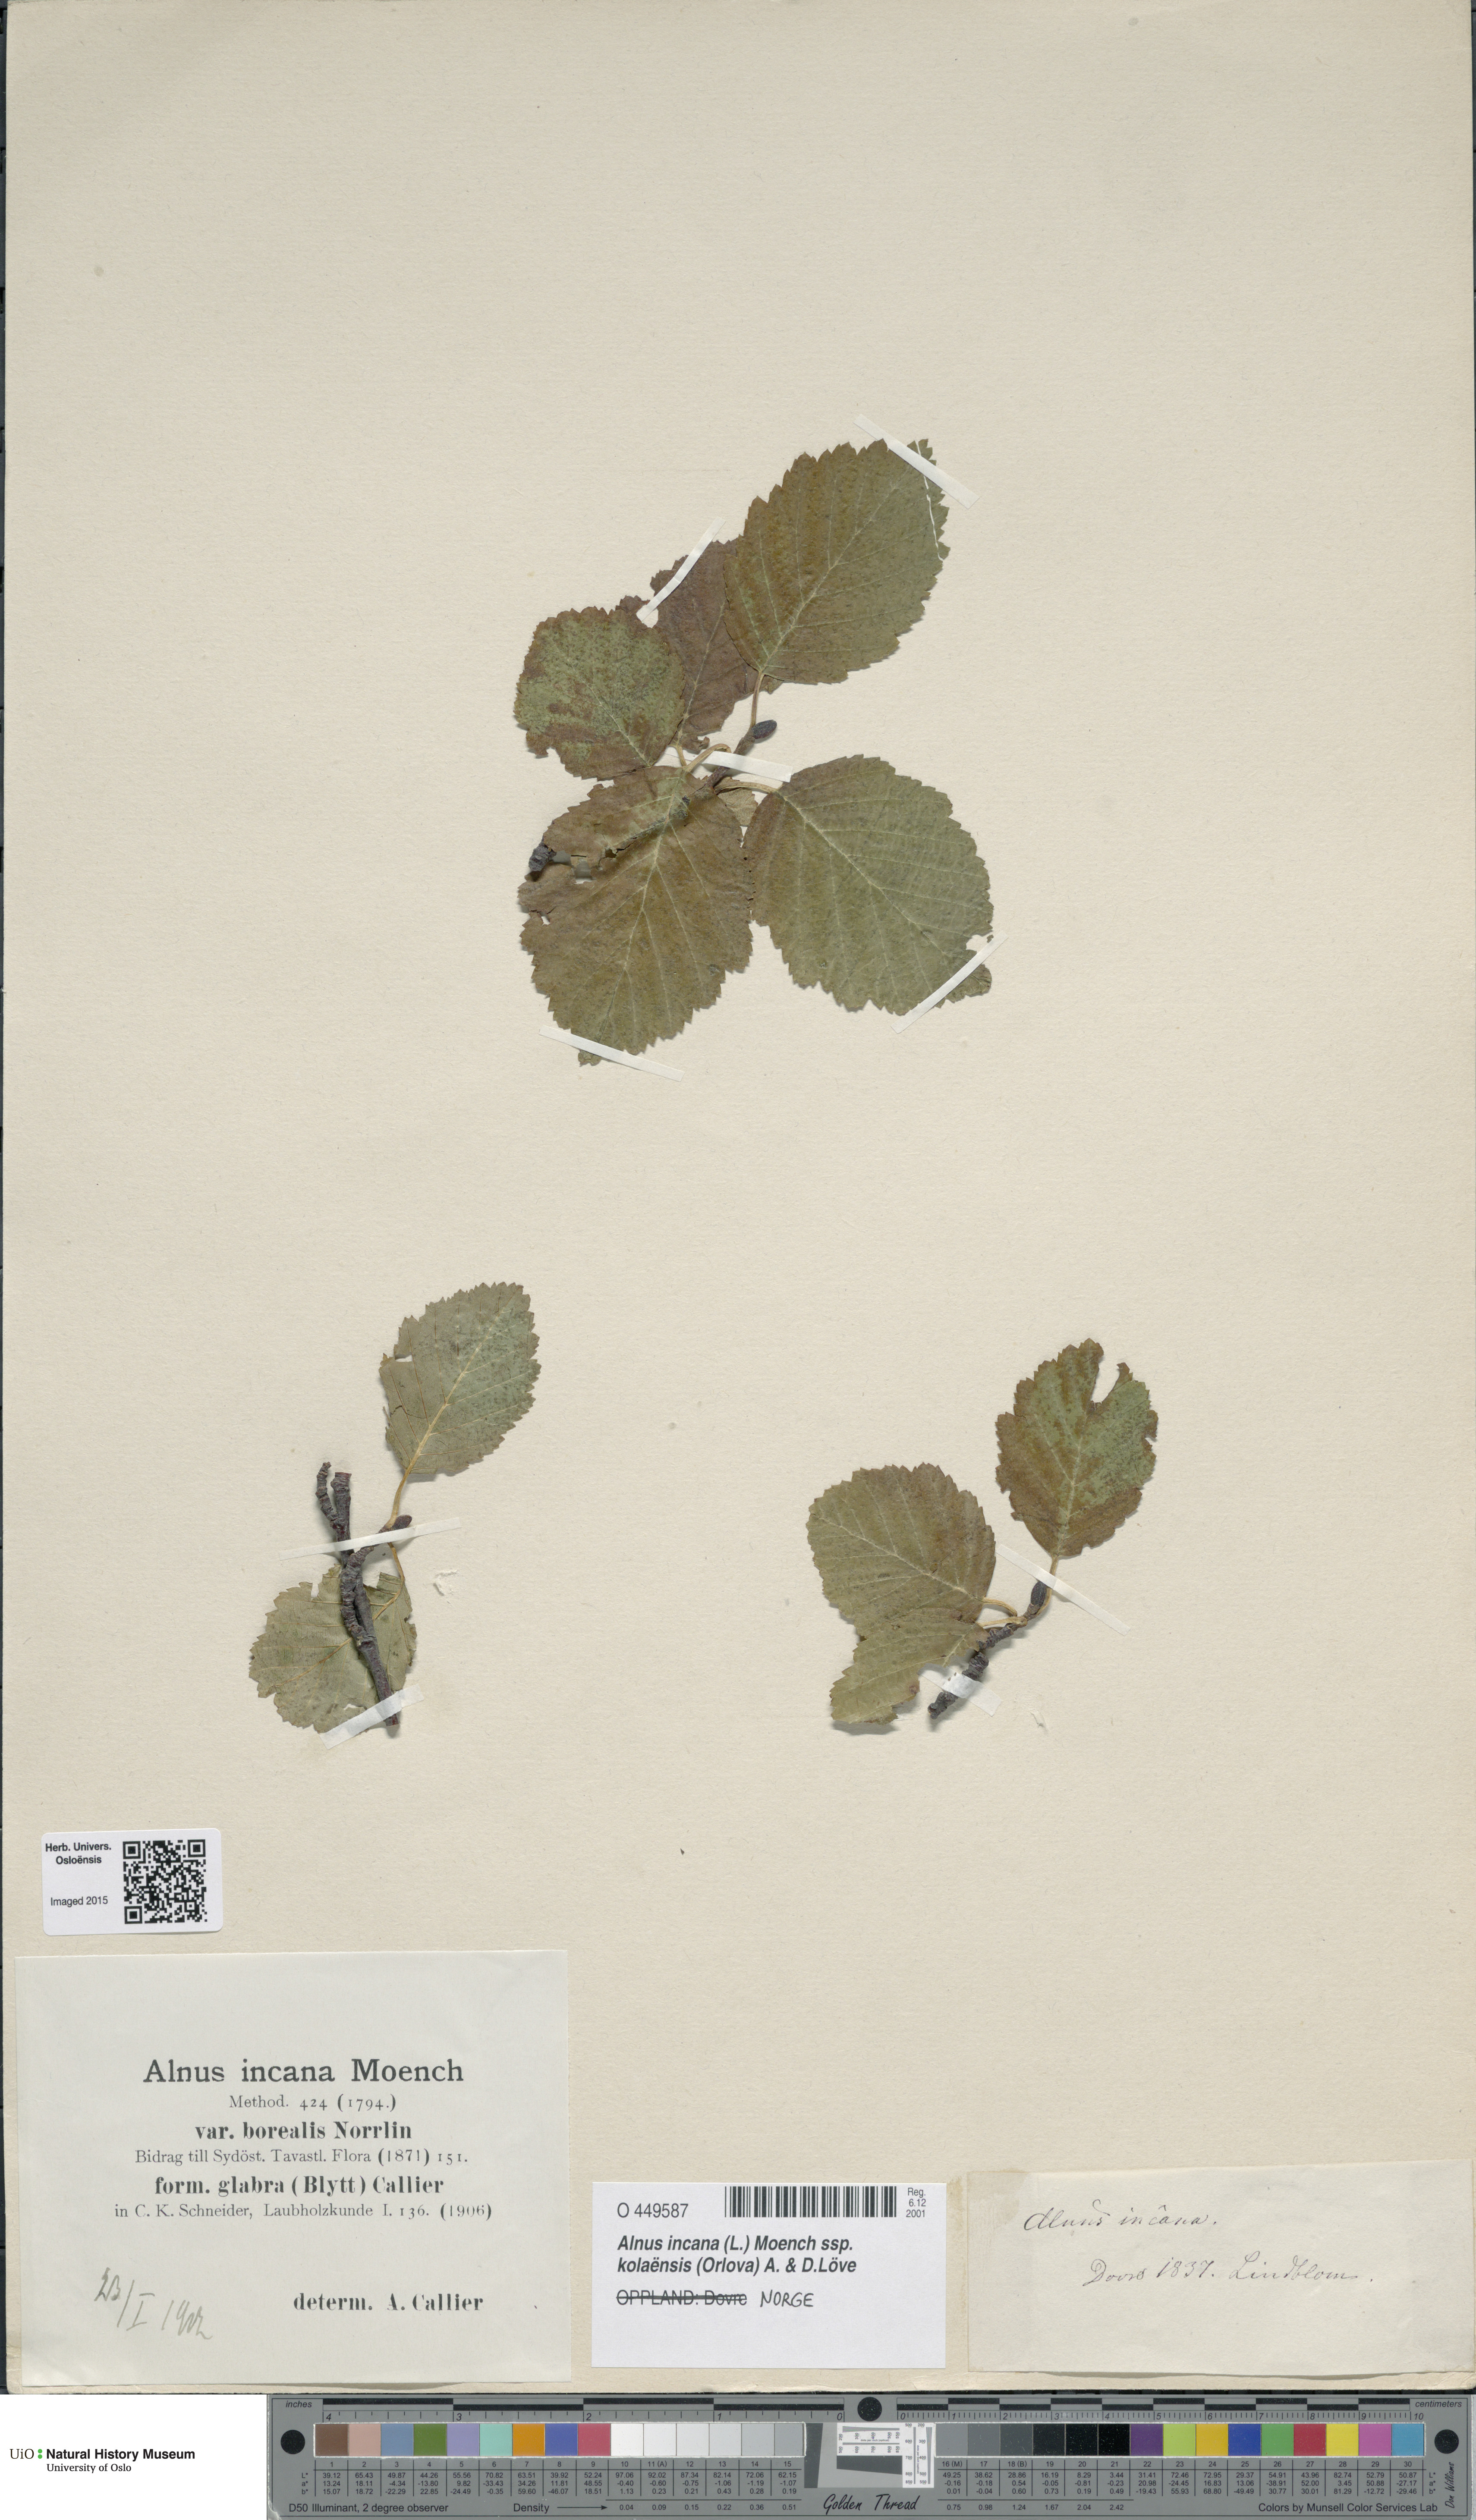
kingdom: Plantae
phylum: Tracheophyta
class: Magnoliopsida
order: Fagales
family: Betulaceae
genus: Alnus
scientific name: Alnus incana
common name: Grey alder
